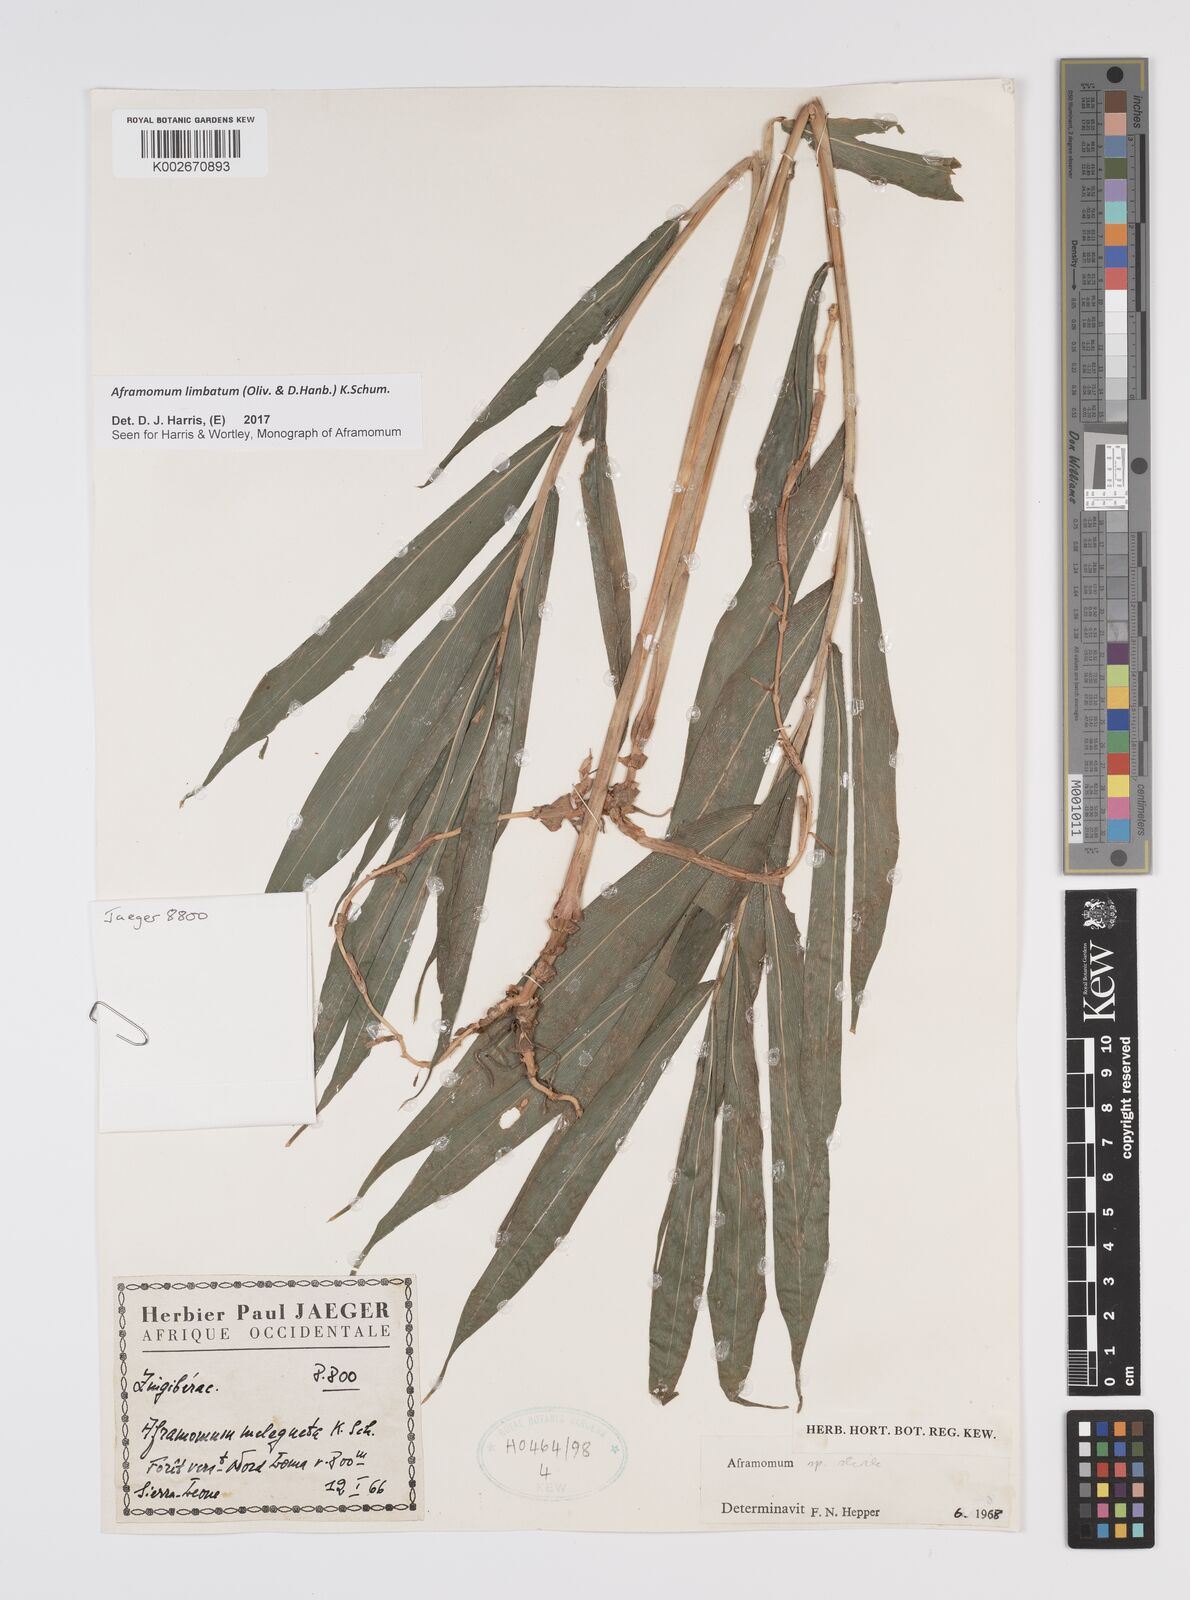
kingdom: Plantae
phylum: Tracheophyta
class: Liliopsida
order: Zingiberales
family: Zingiberaceae
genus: Aframomum
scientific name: Aframomum limbatum
